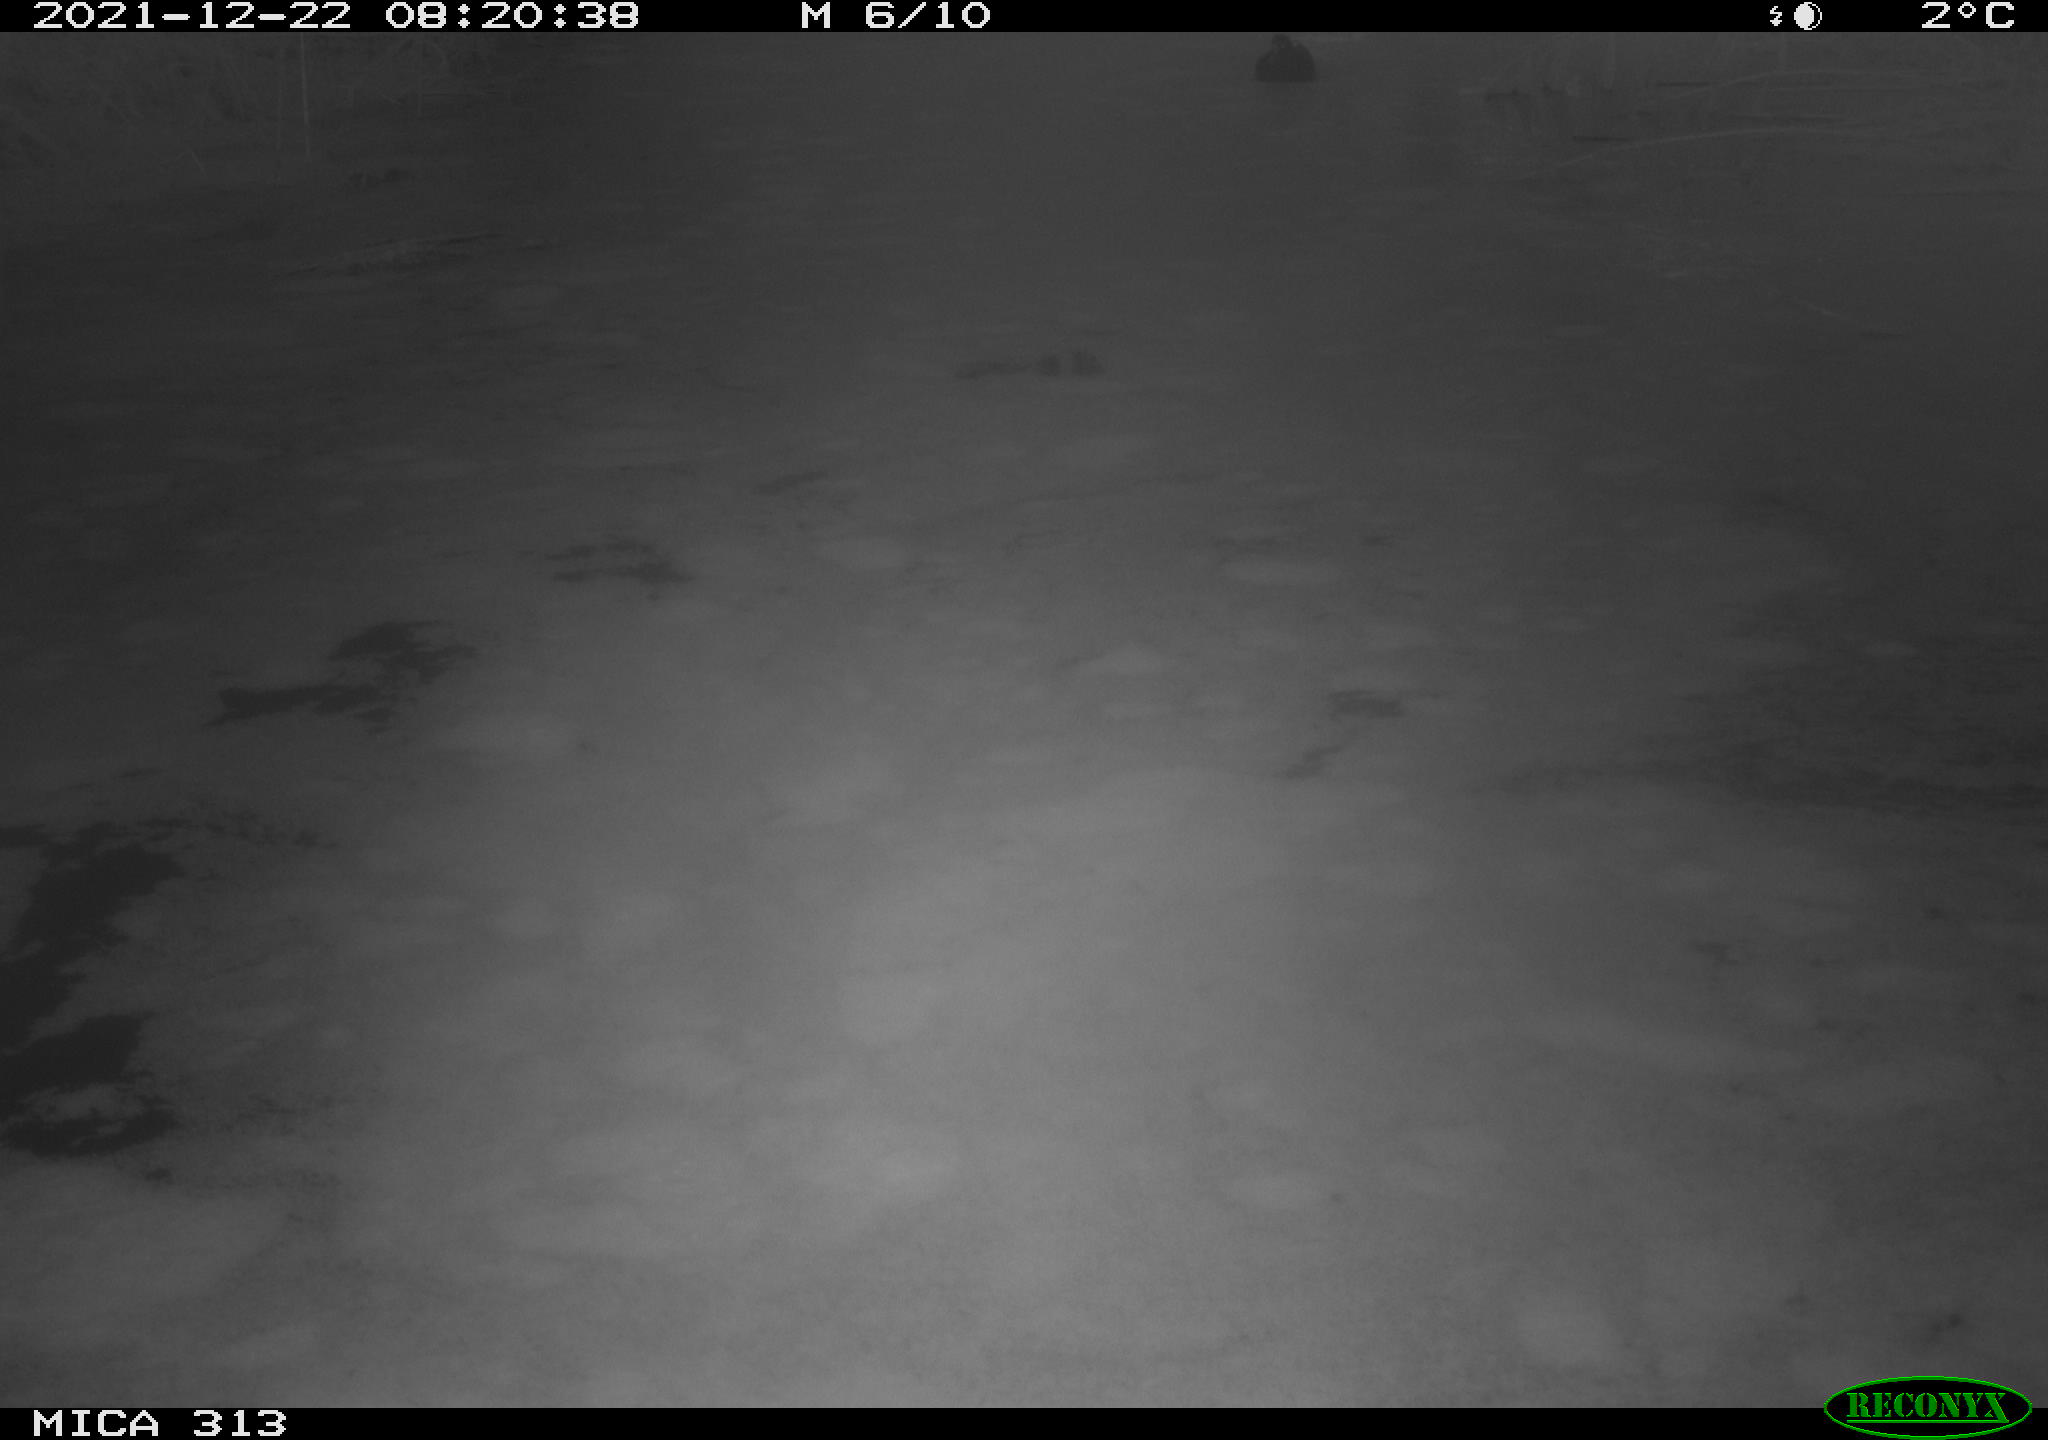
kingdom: Animalia
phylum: Chordata
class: Aves
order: Gruiformes
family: Rallidae
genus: Gallinula
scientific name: Gallinula chloropus
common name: Common moorhen
